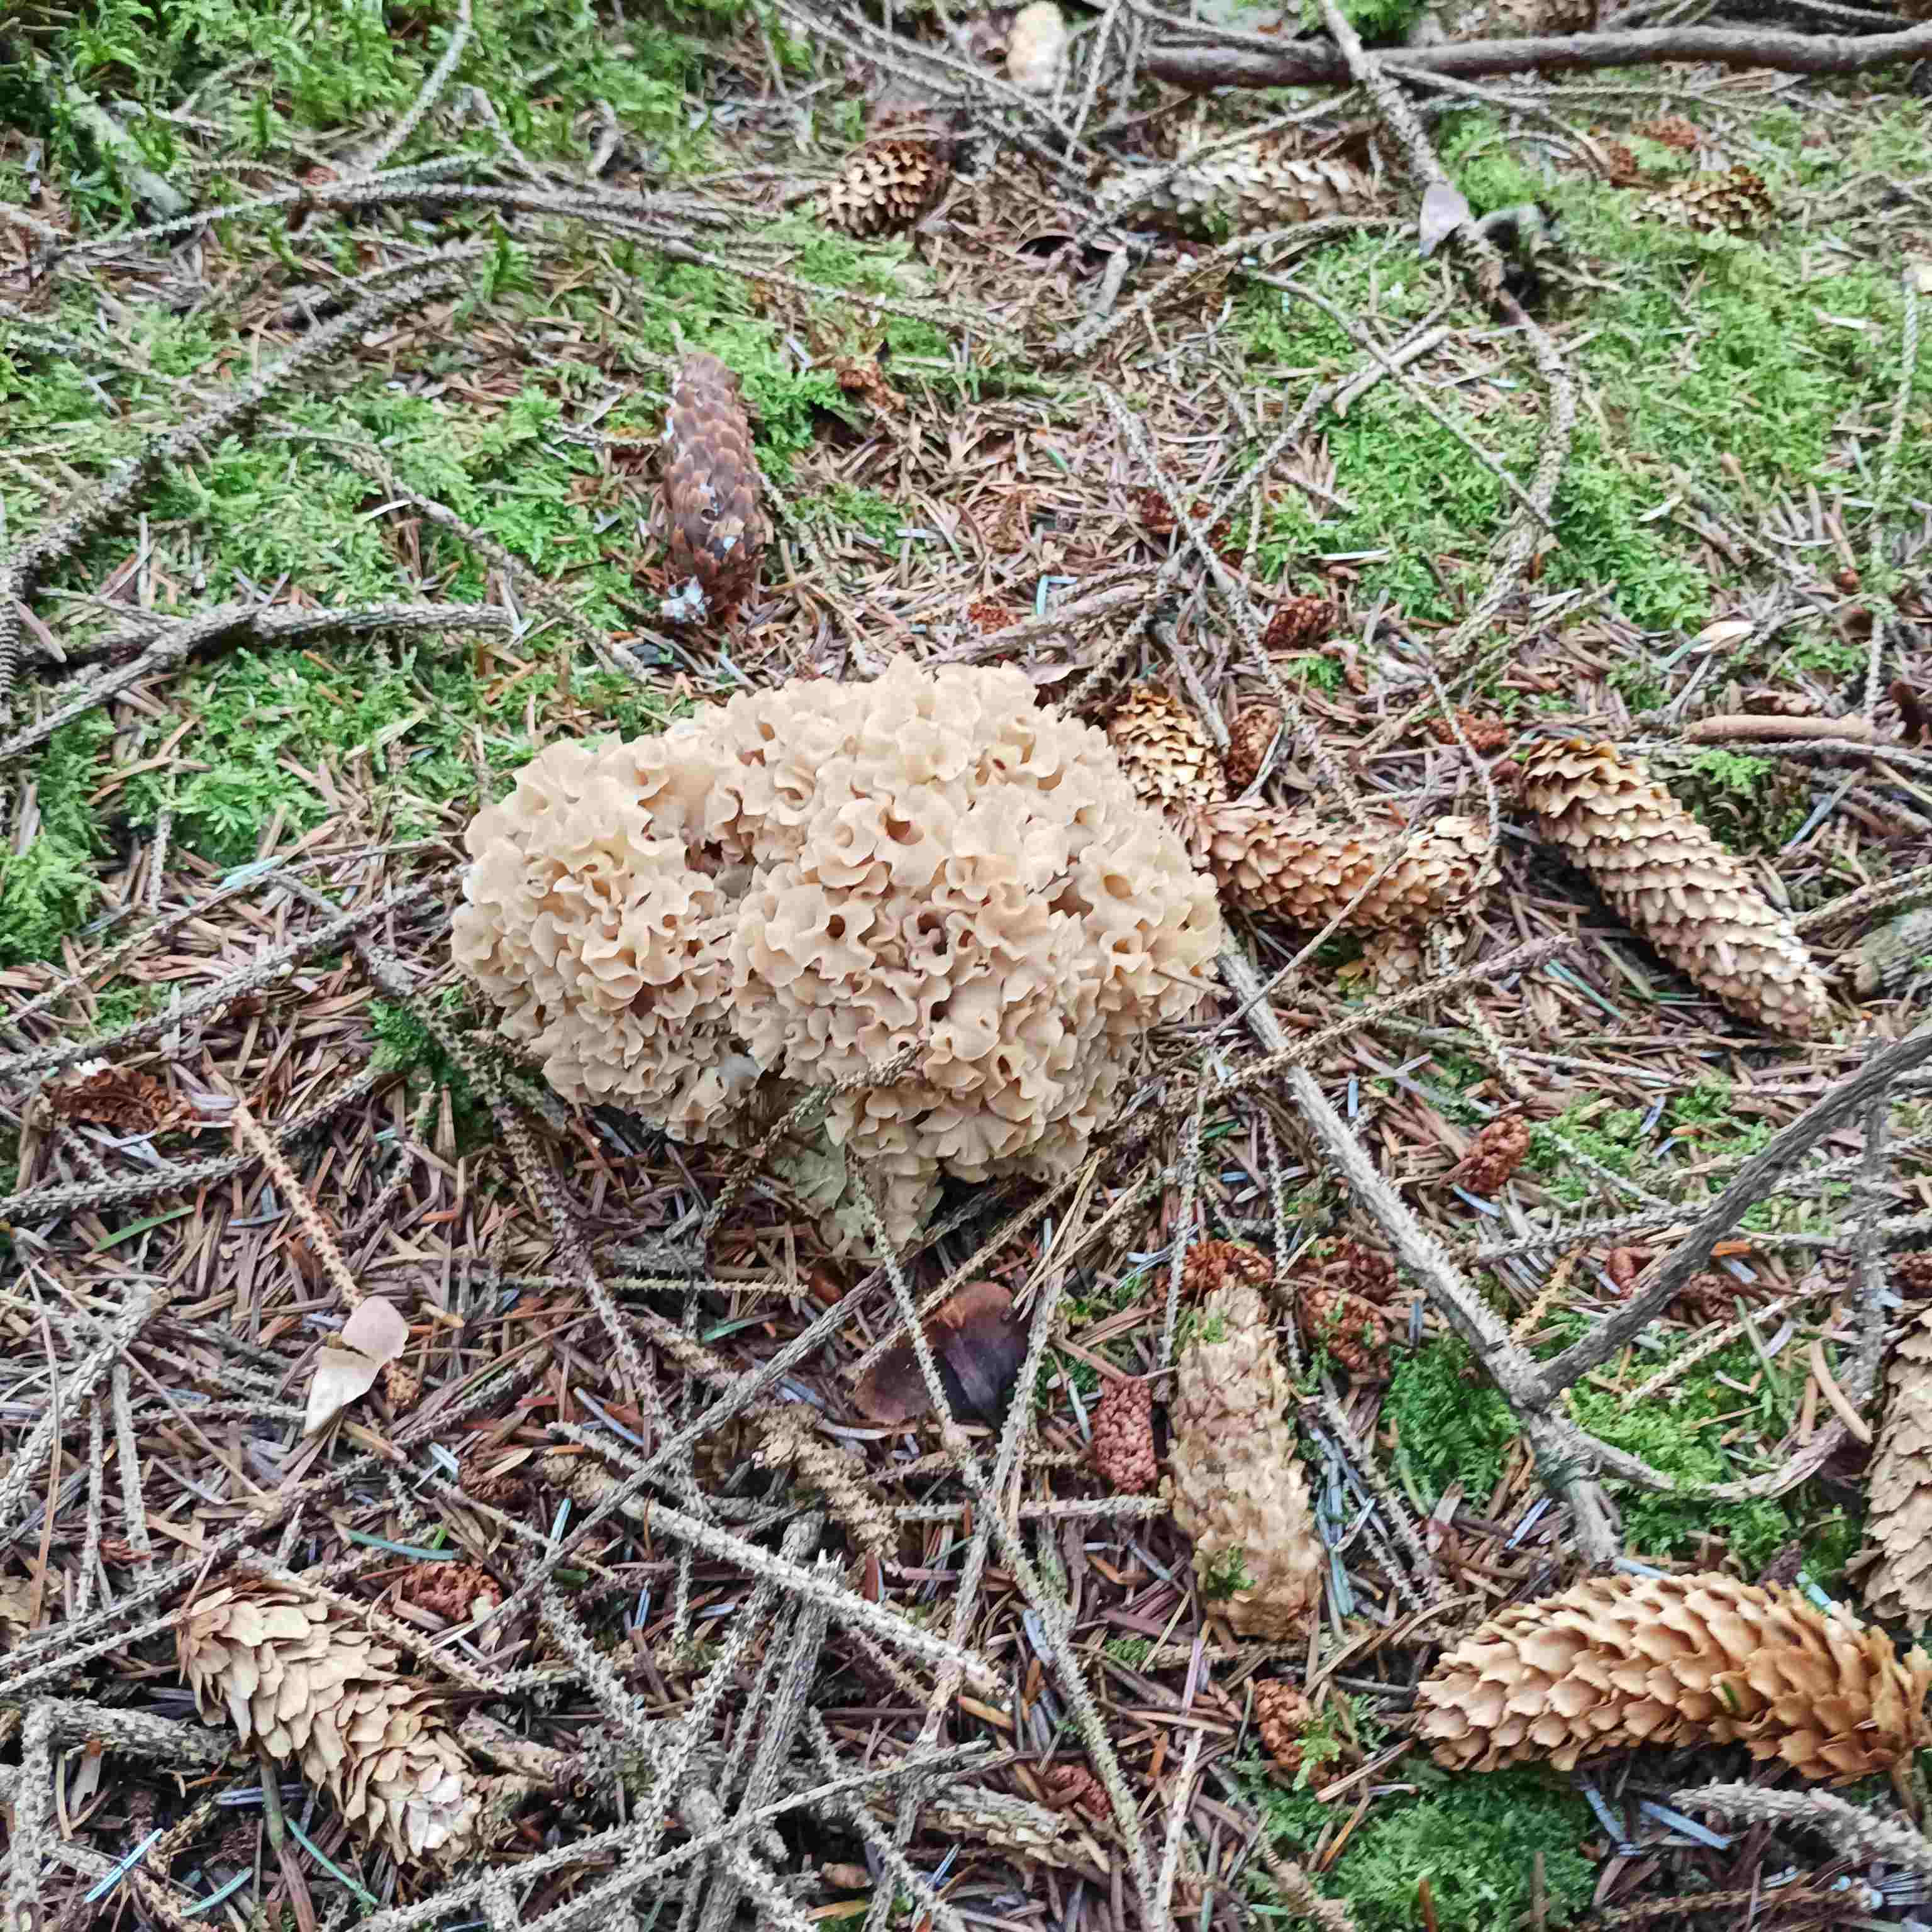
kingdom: Fungi
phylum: Basidiomycota
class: Agaricomycetes
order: Polyporales
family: Sparassidaceae
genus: Sparassis
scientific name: Sparassis crispa
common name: kruset blomkålssvamp
